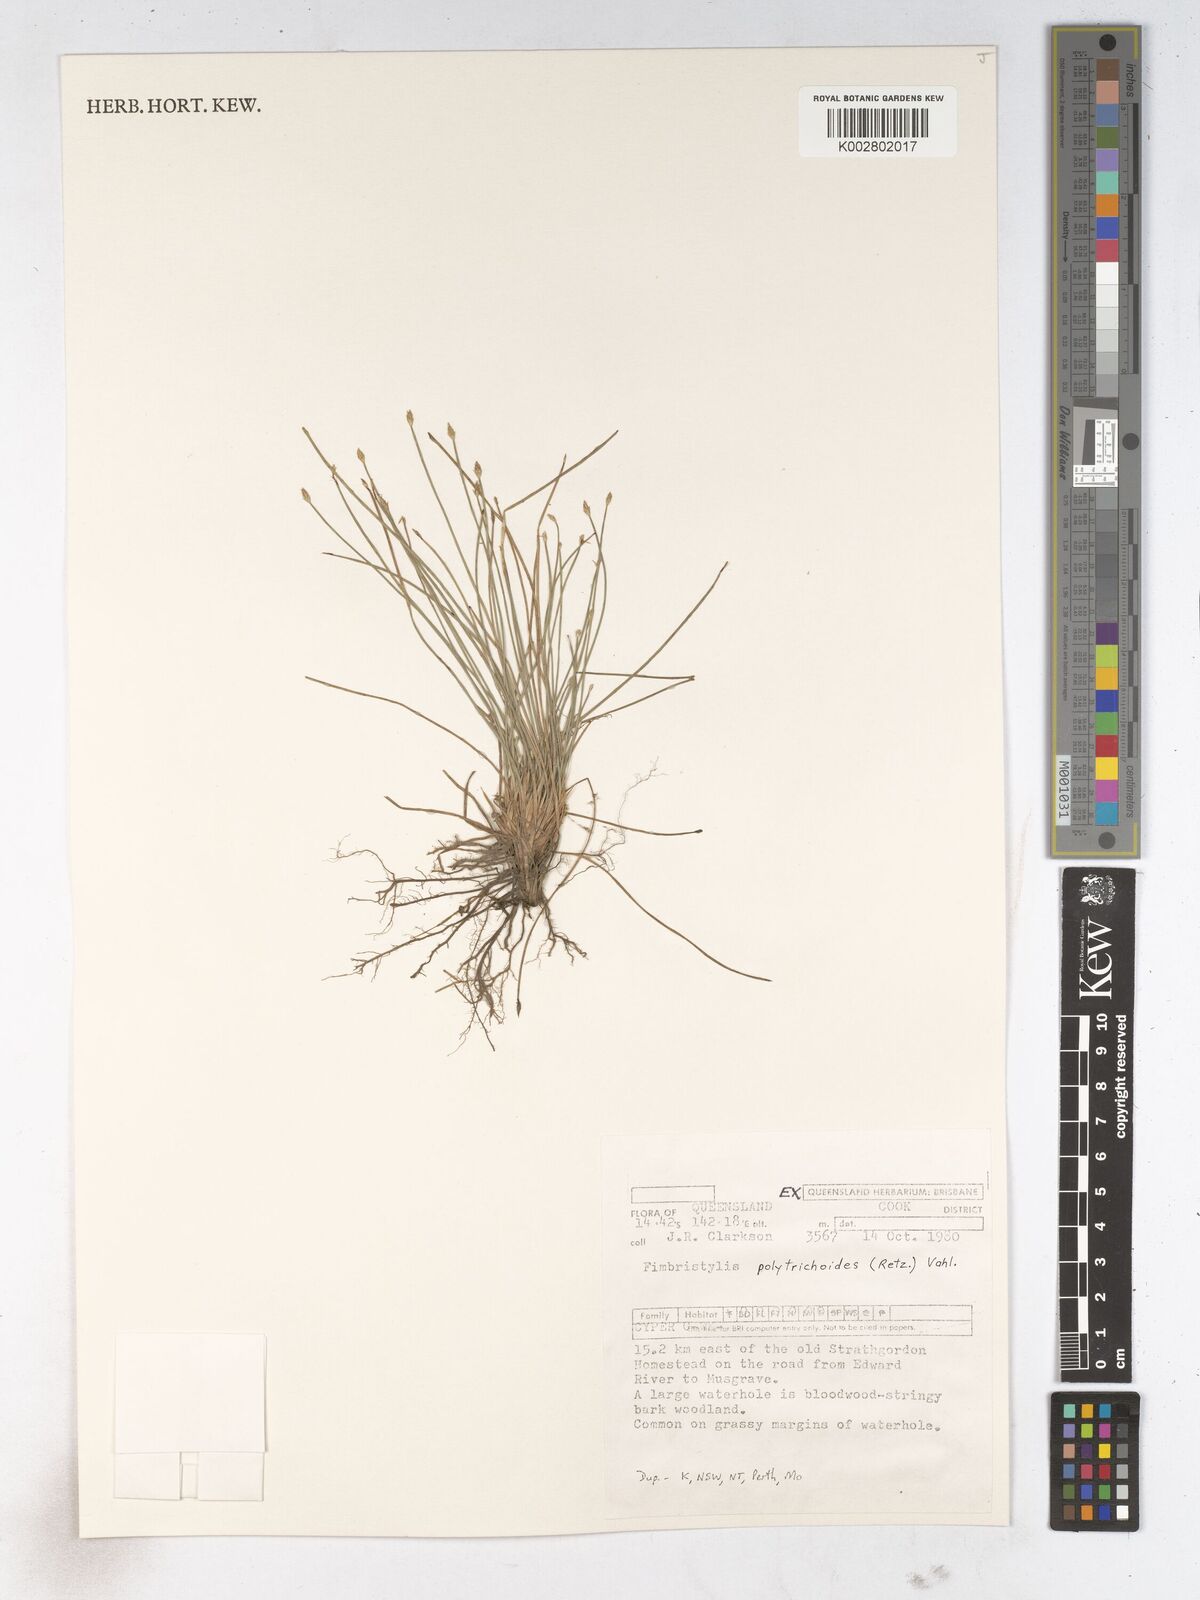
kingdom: Plantae
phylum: Tracheophyta
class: Liliopsida
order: Poales
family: Cyperaceae
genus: Fimbristylis
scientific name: Fimbristylis polytrichoides
